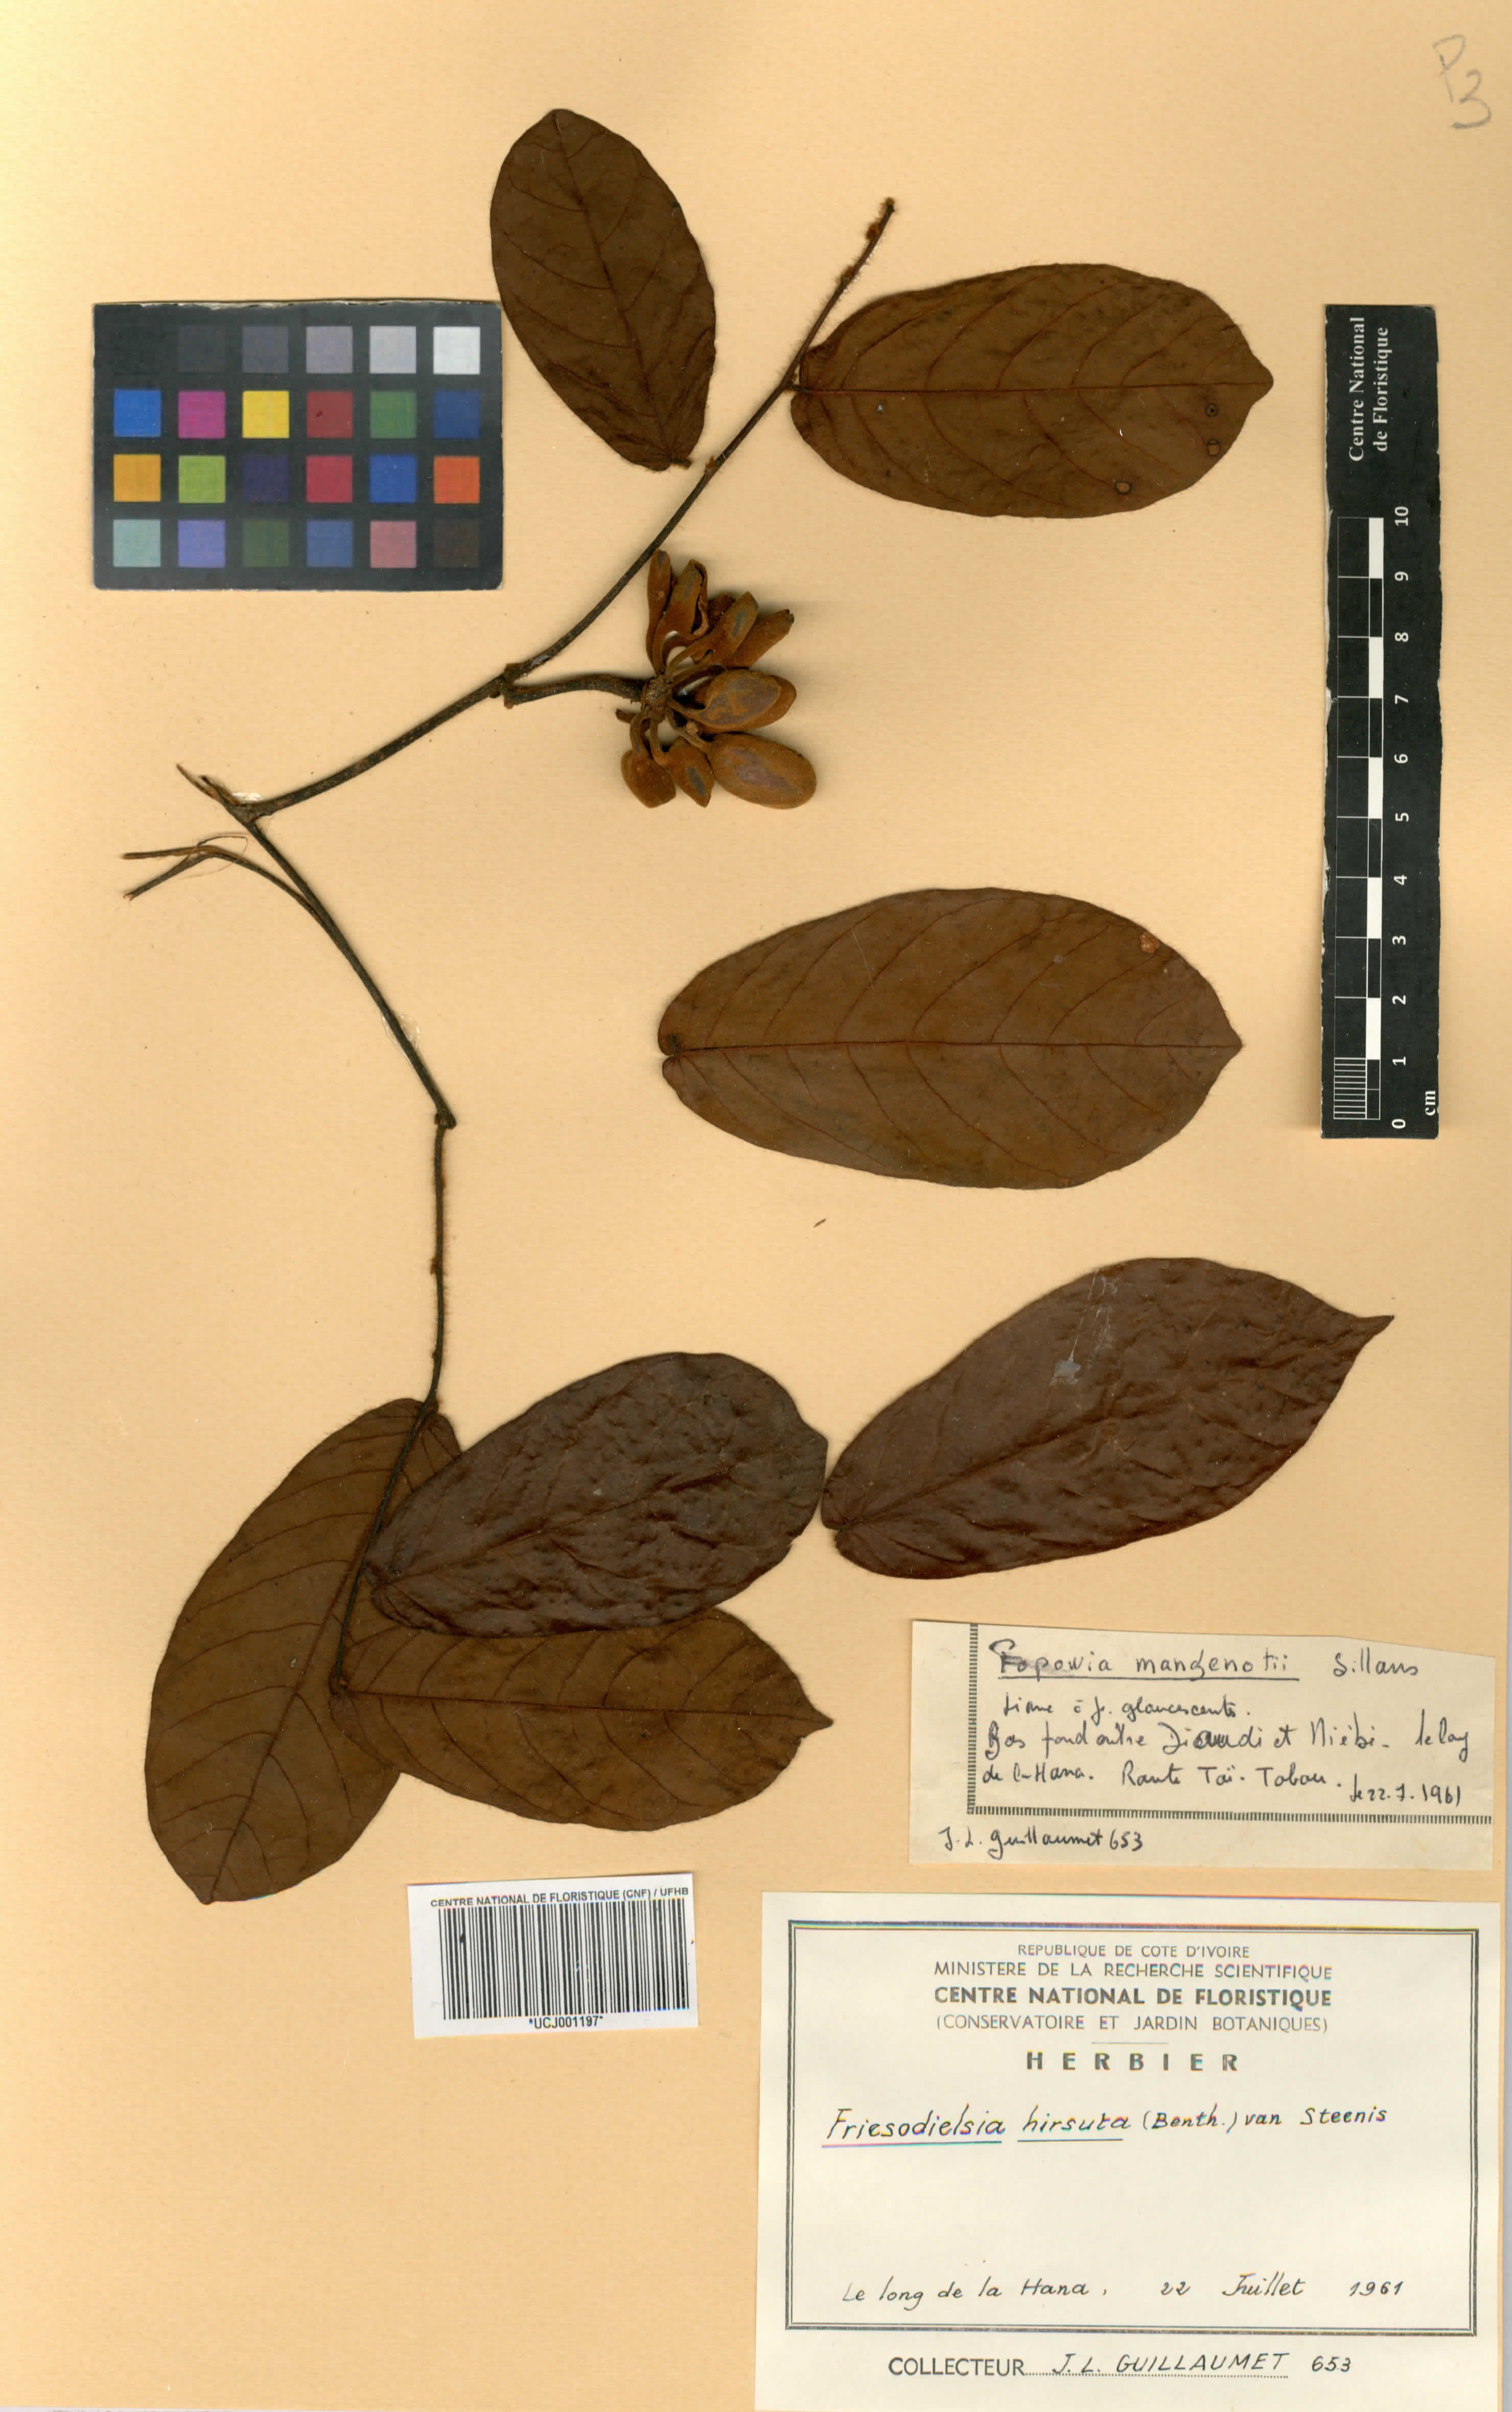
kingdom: Plantae
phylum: Tracheophyta
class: Magnoliopsida
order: Magnoliales
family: Annonaceae
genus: Friesodielsia
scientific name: Friesodielsia hirsuta
